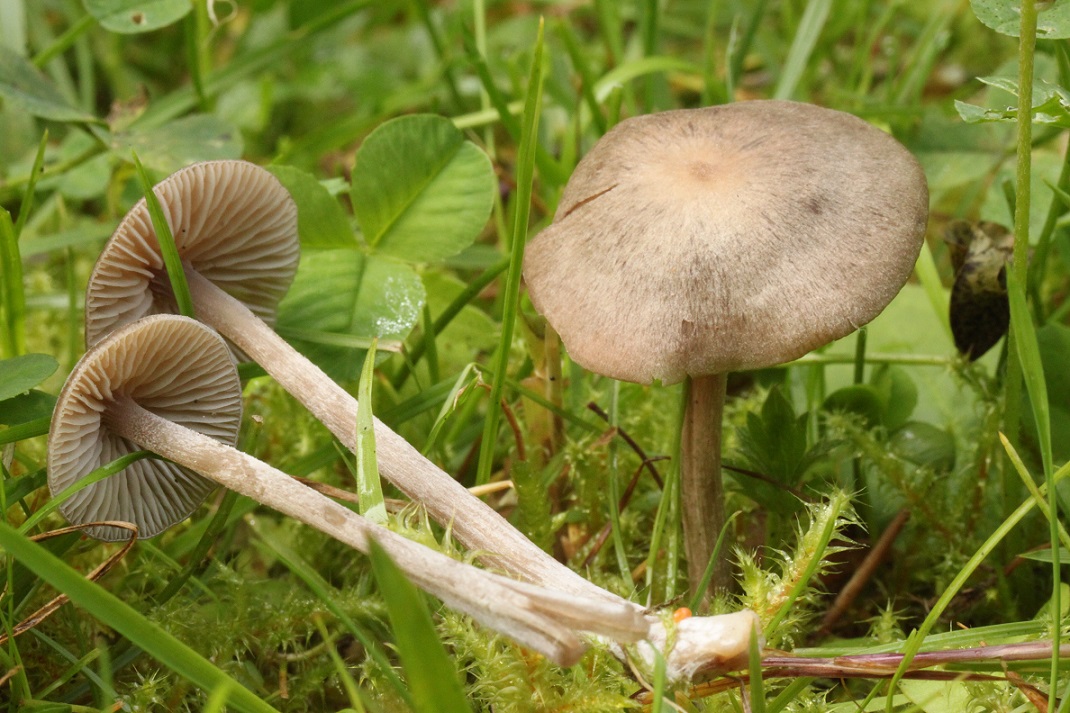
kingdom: Fungi
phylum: Basidiomycota
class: Agaricomycetes
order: Agaricales
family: Entolomataceae
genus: Entoloma
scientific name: Entoloma cuneatum
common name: dunstokket rødblad
